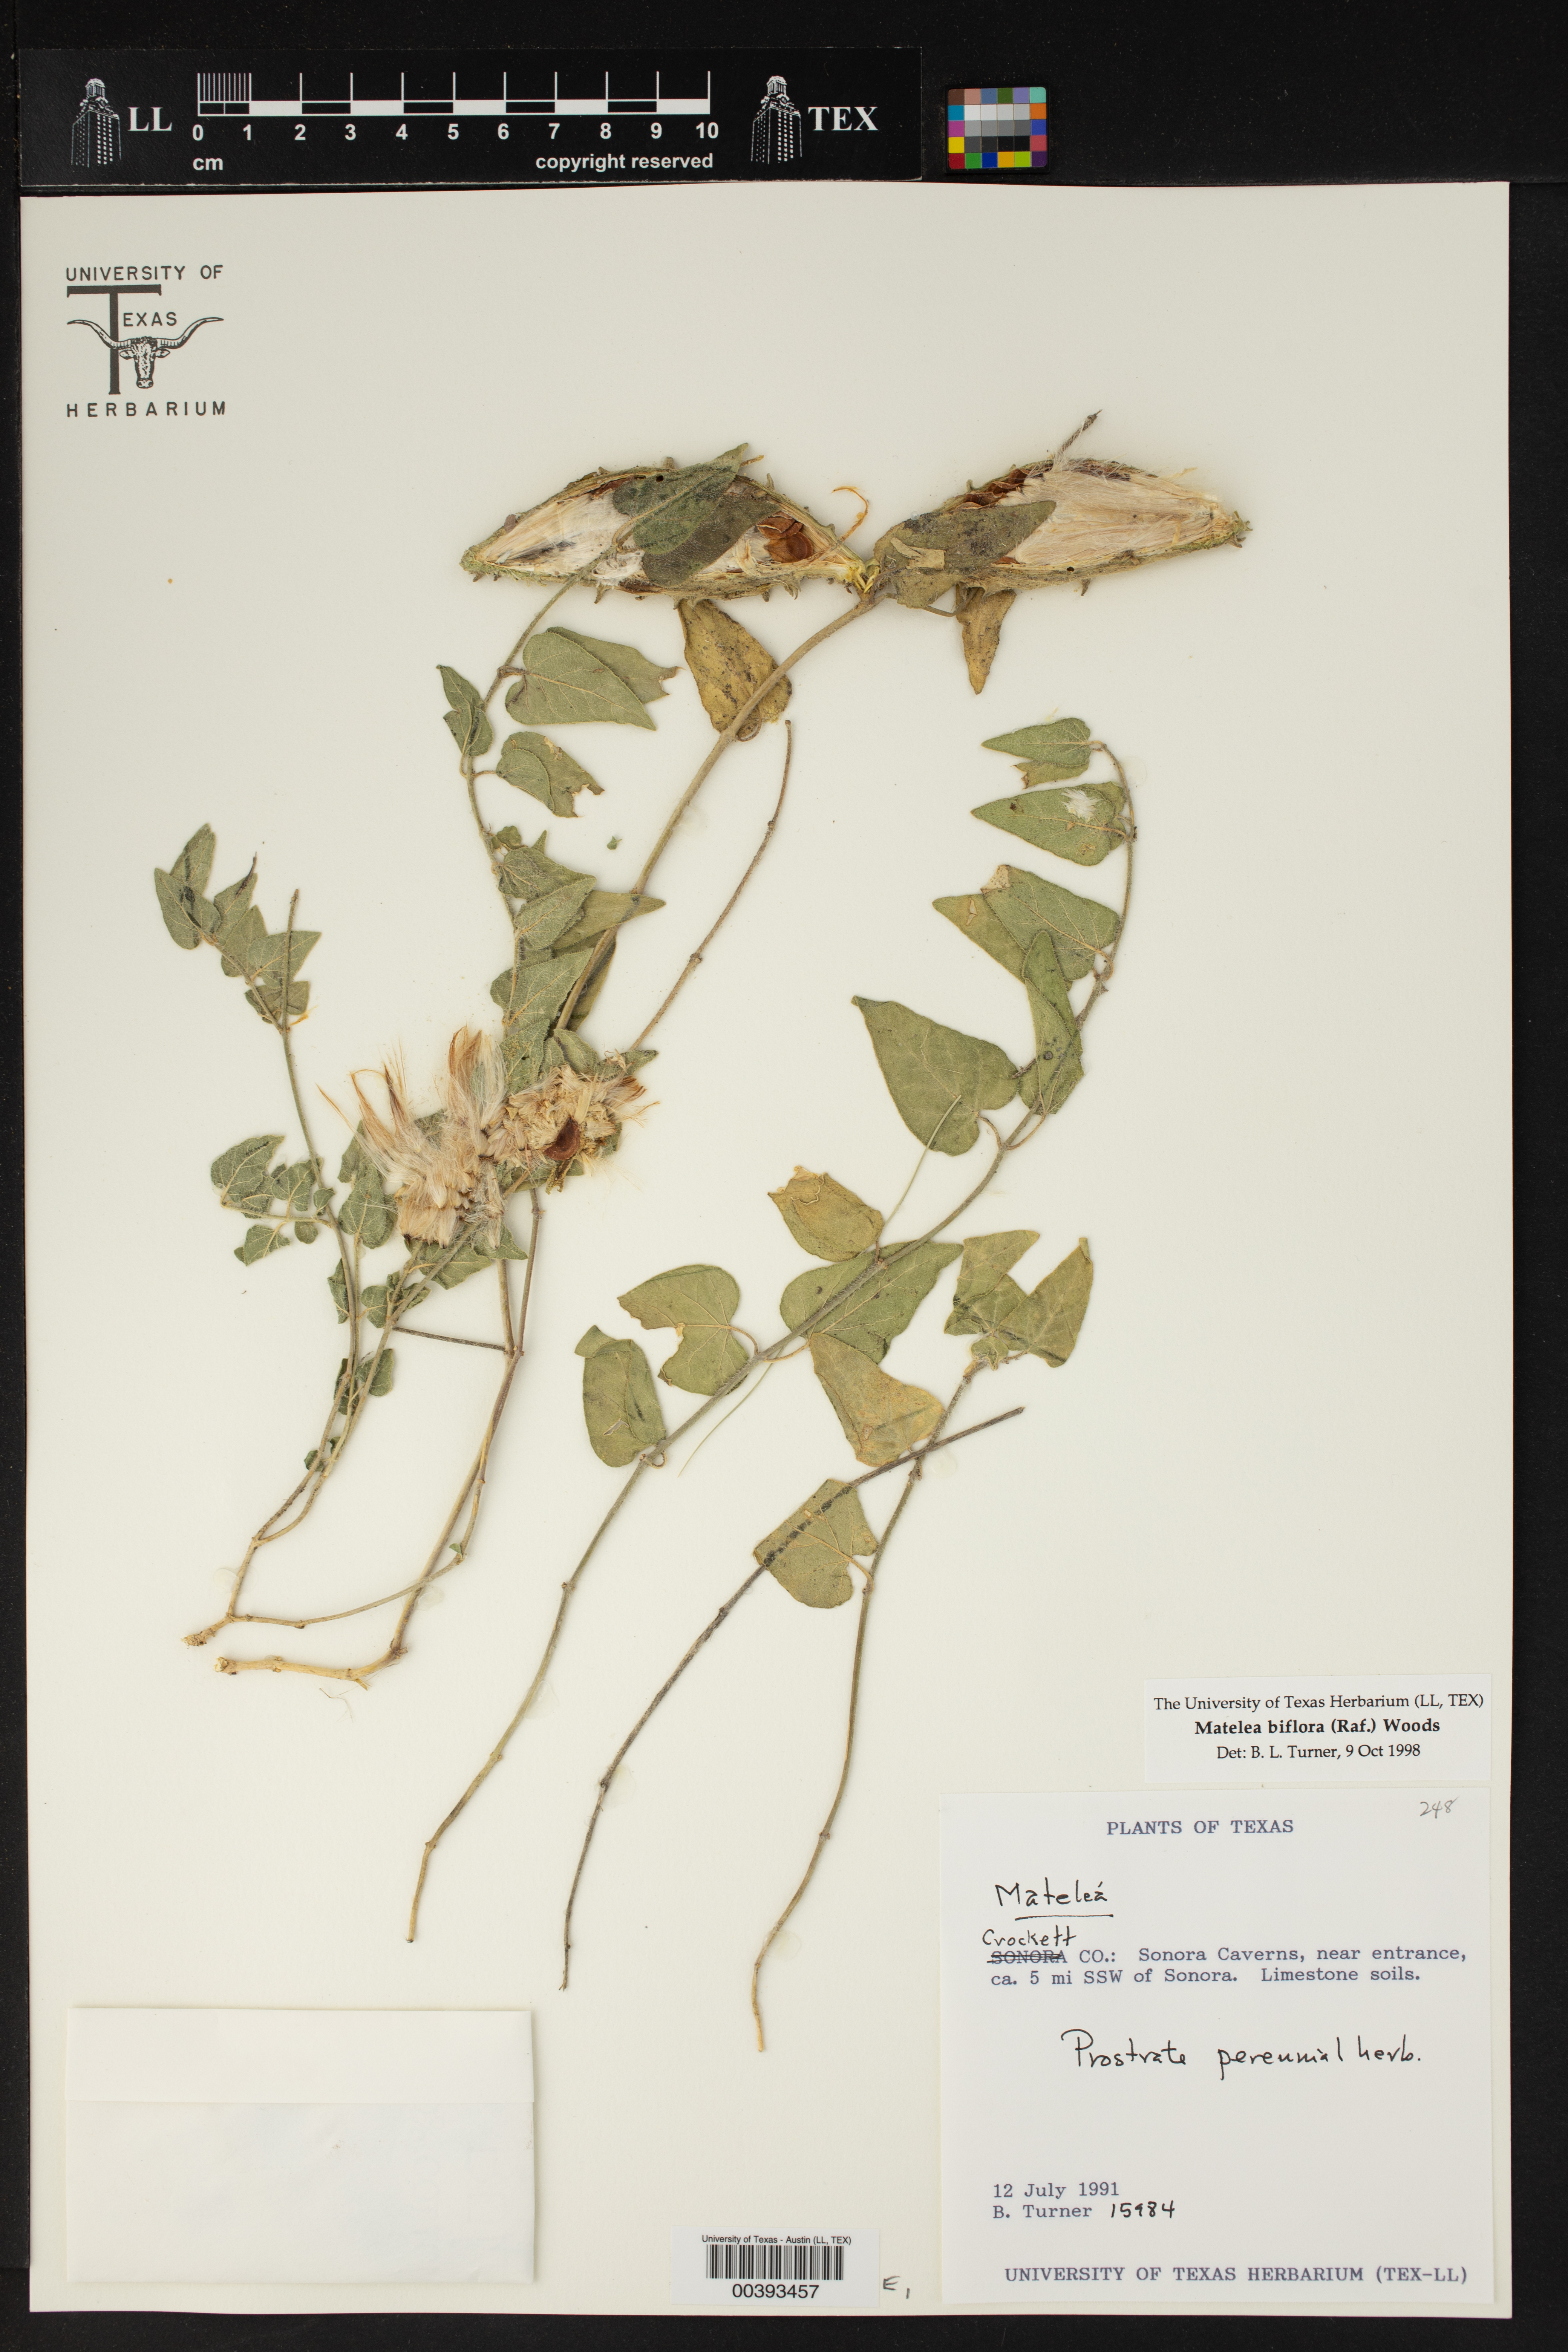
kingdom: Plantae
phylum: Tracheophyta
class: Magnoliopsida
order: Gentianales
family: Apocynaceae
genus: Chthamalia
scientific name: Chthamalia biflora
